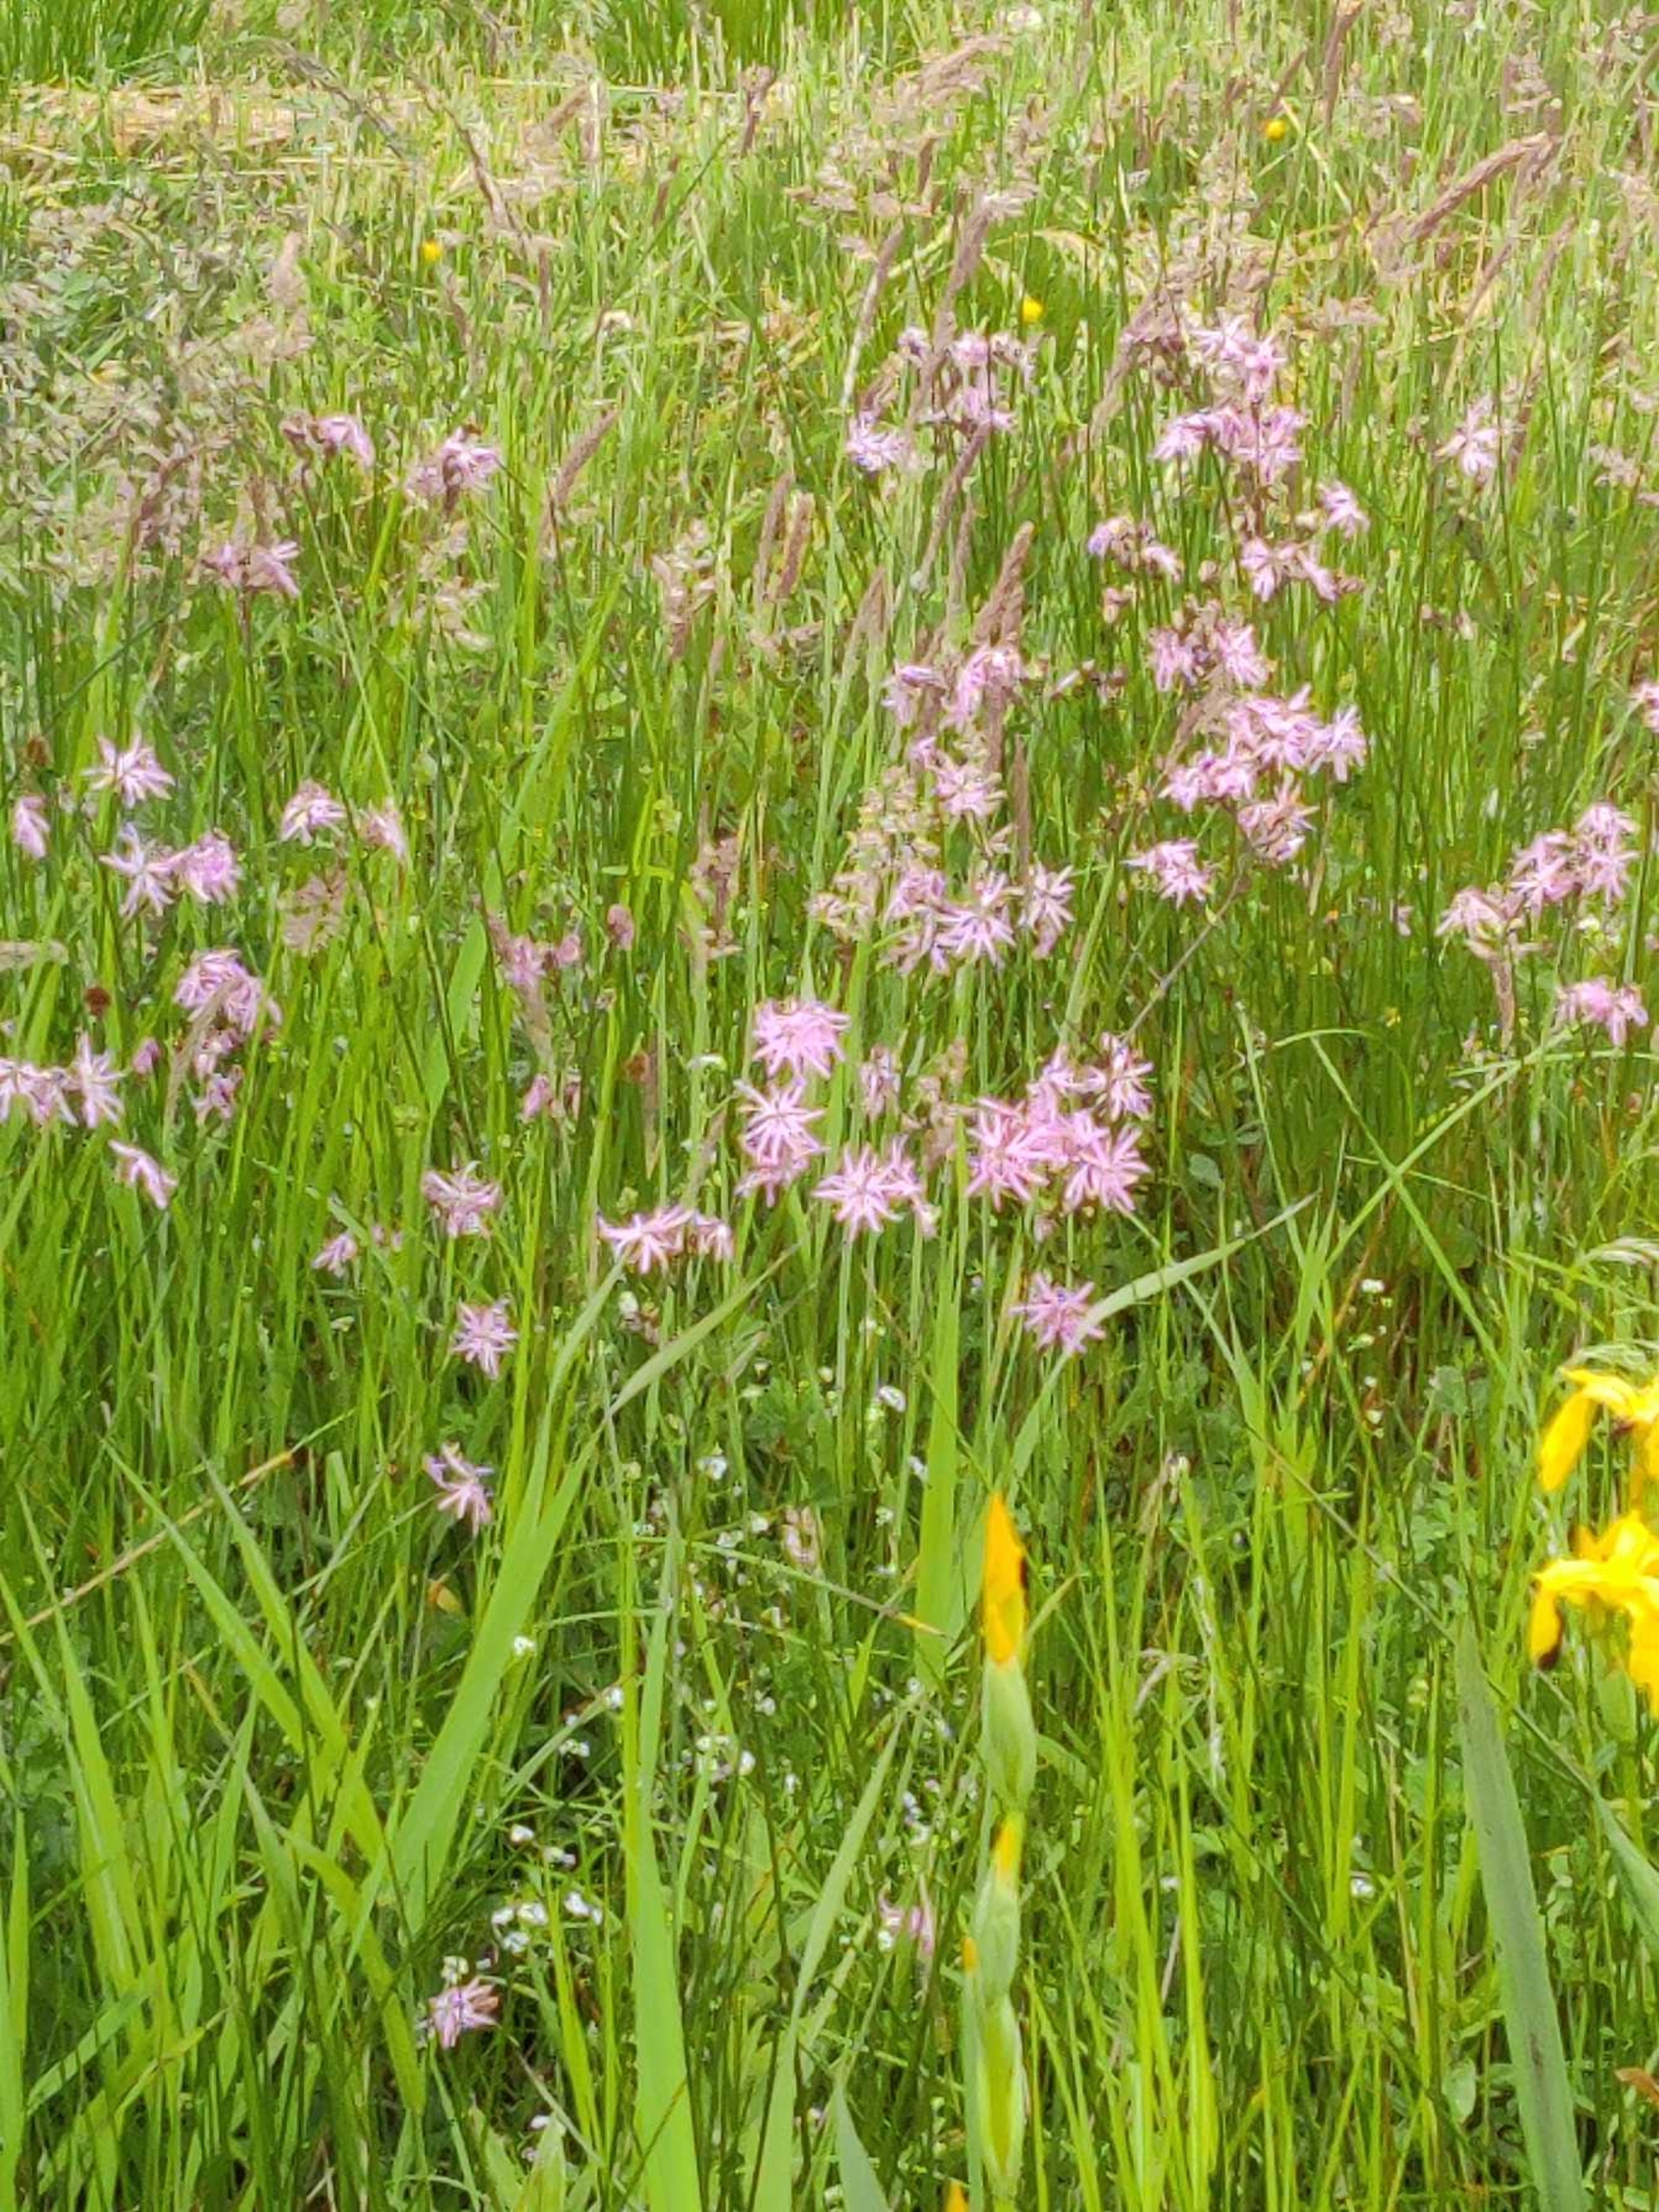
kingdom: Plantae
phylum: Tracheophyta
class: Magnoliopsida
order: Caryophyllales
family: Caryophyllaceae
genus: Silene
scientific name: Silene flos-cuculi
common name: Trævlekrone
